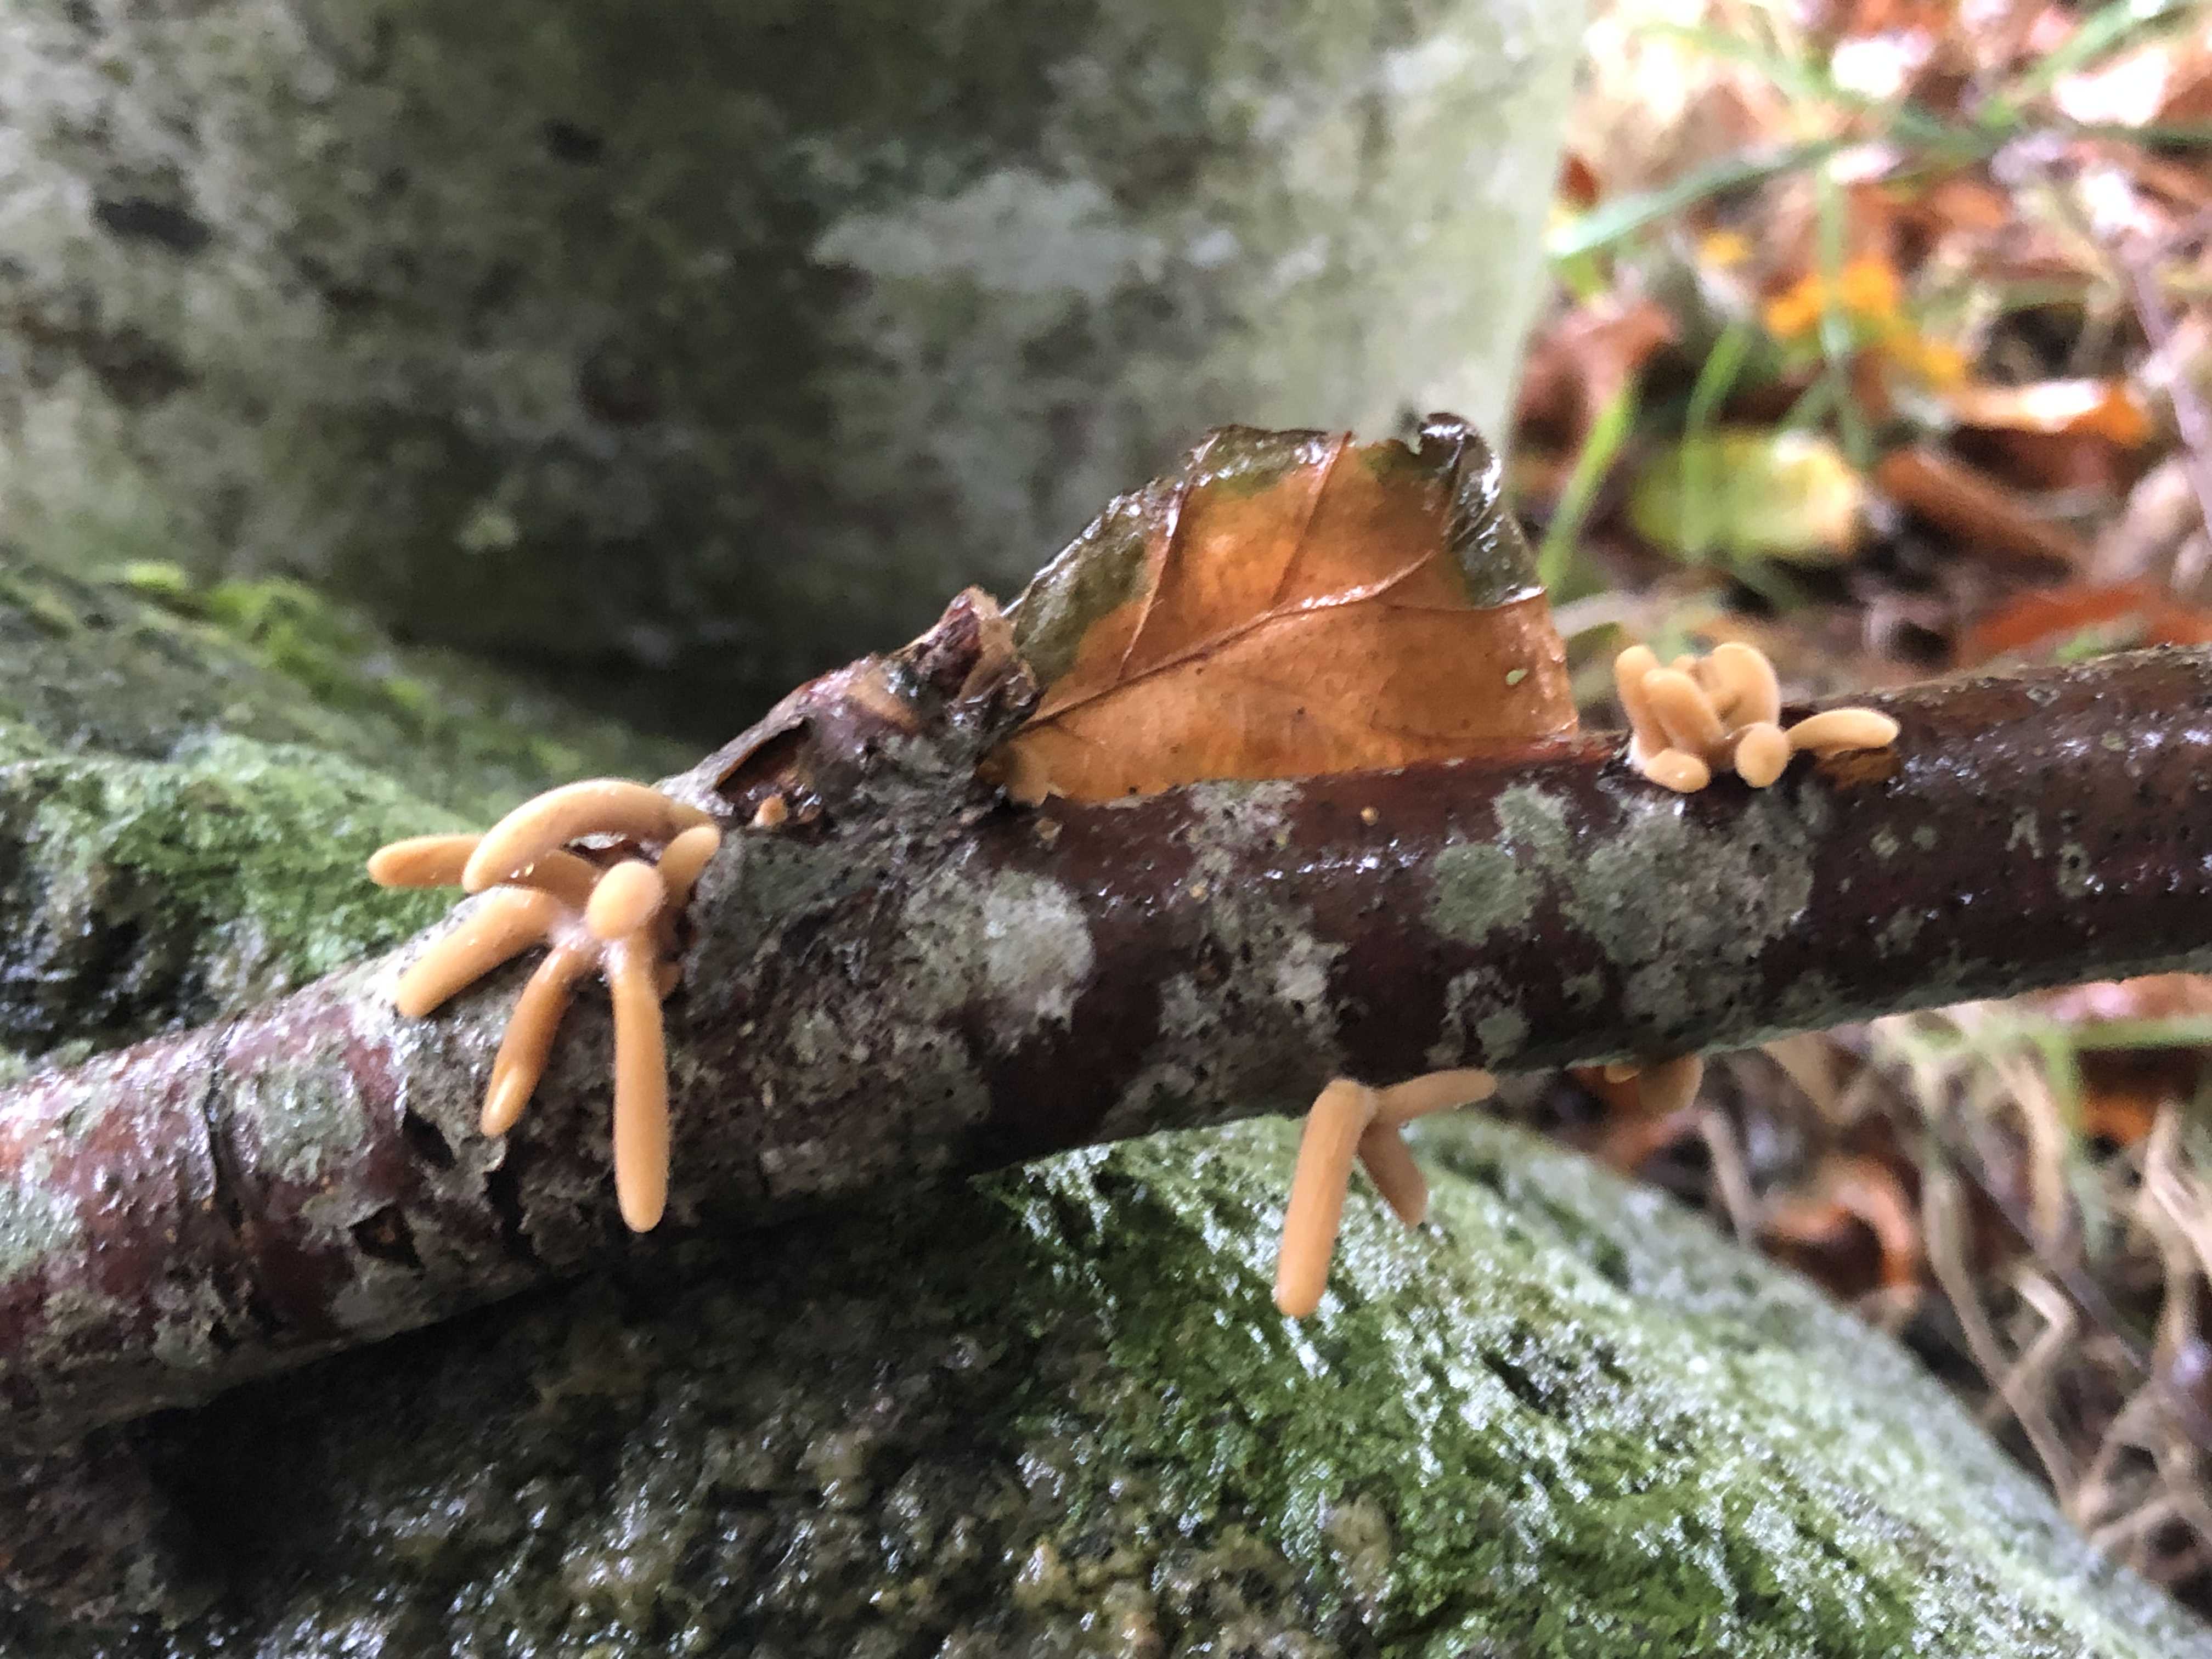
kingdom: Fungi
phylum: Basidiomycota
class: Agaricomycetes
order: Agaricales
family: Typhulaceae
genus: Typhula
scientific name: Typhula fistulosa
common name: pibet rørkølle
